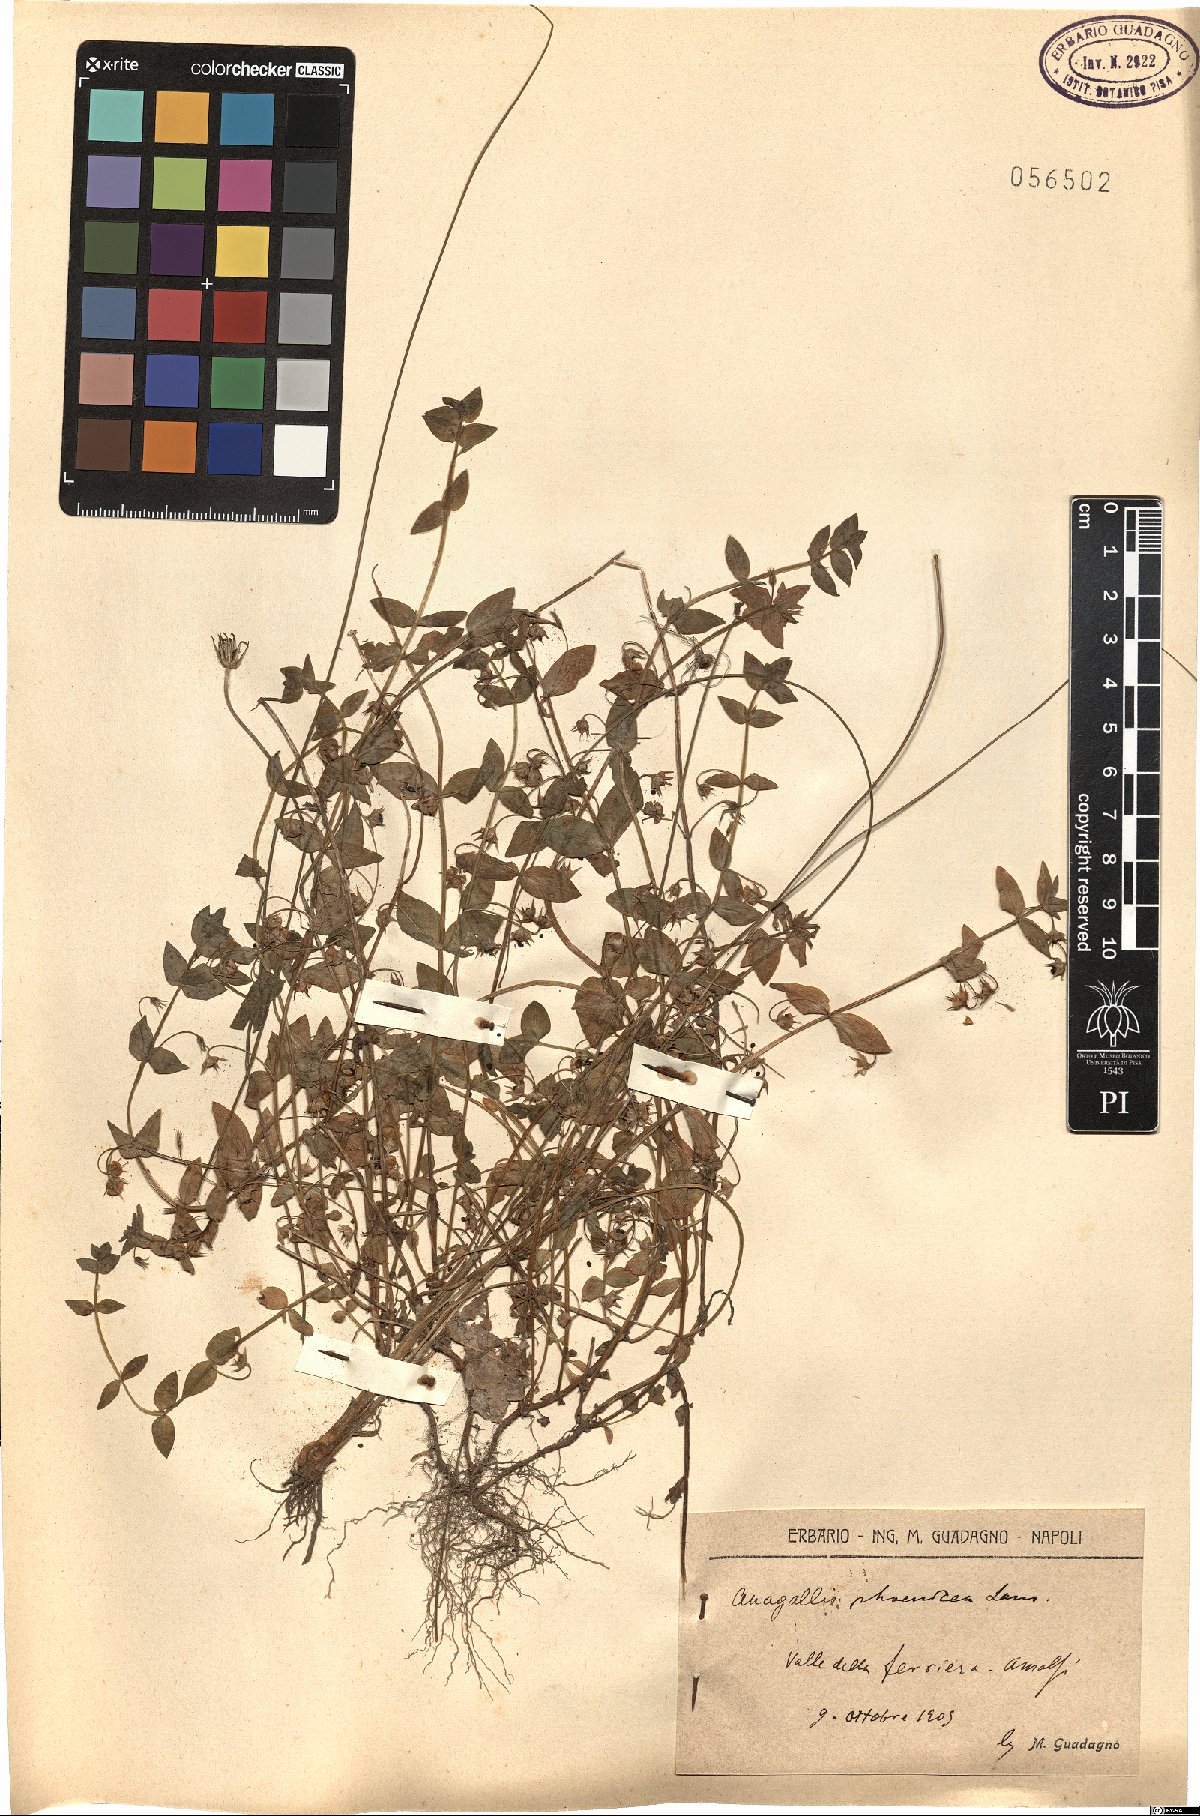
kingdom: Plantae
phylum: Tracheophyta
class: Magnoliopsida
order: Ericales
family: Primulaceae
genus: Lysimachia
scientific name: Lysimachia arvensis
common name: Scarlet pimpernel
